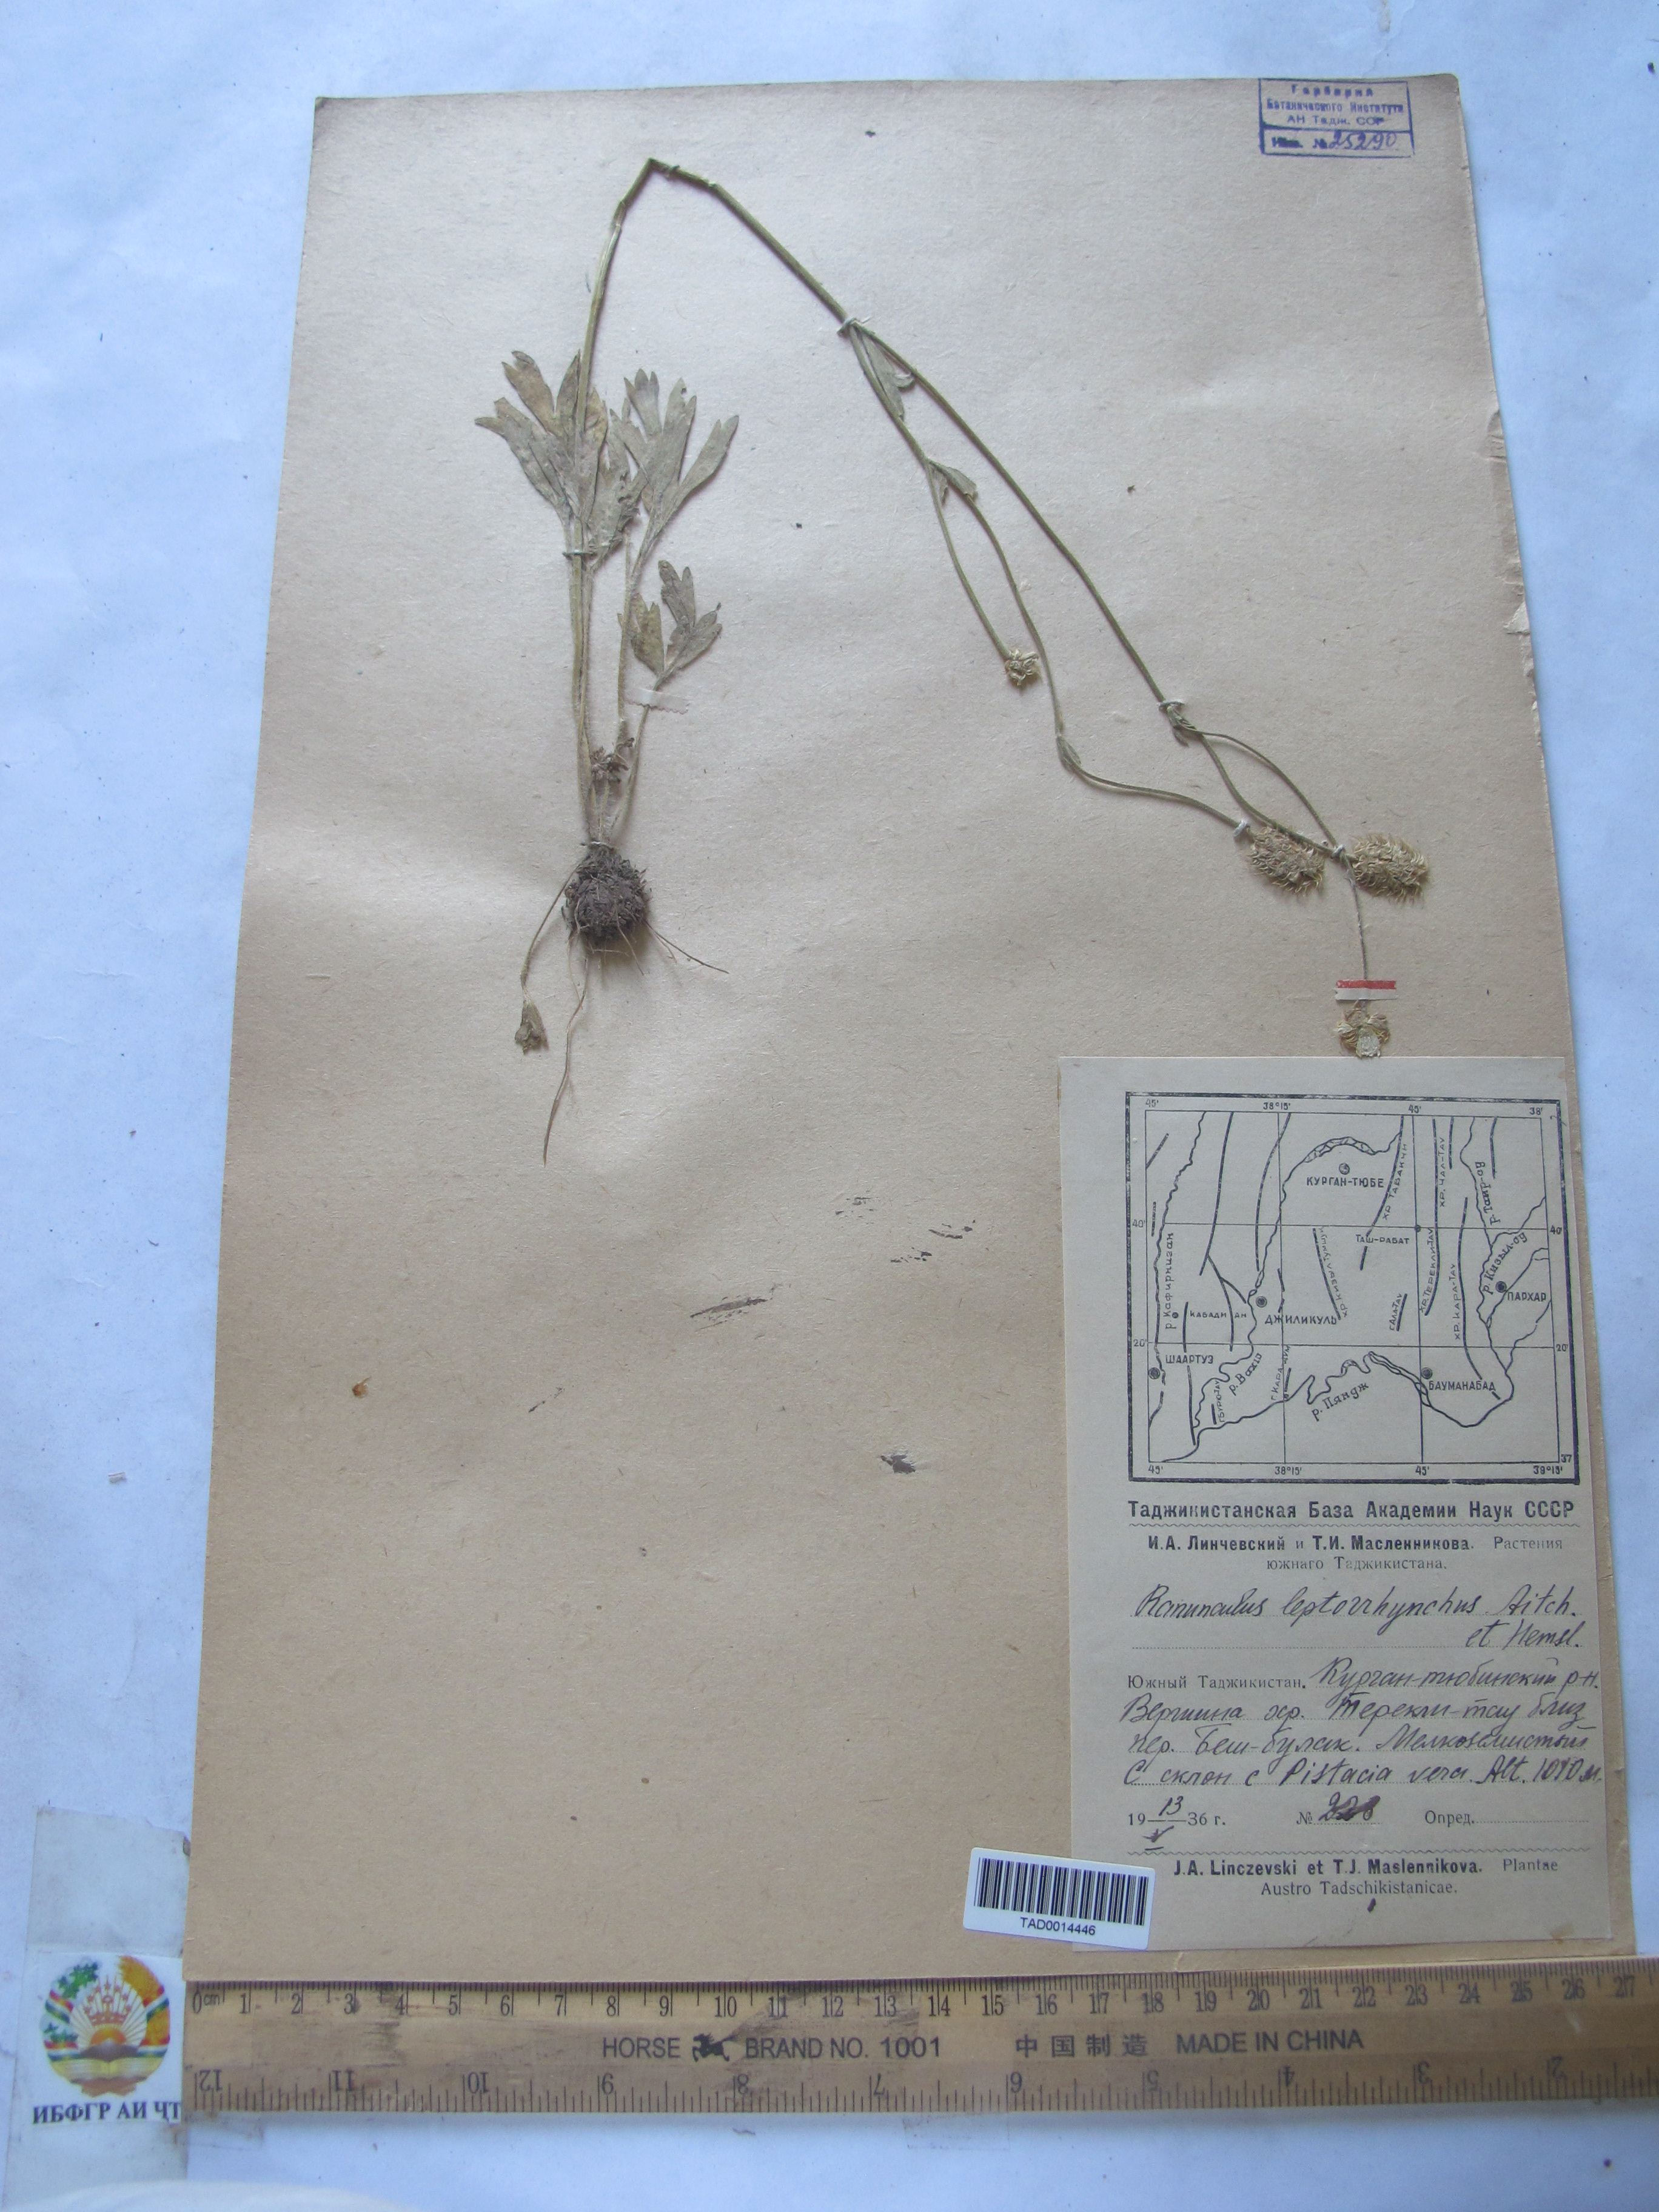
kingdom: Plantae
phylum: Tracheophyta
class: Magnoliopsida
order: Ranunculales
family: Ranunculaceae
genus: Ranunculus
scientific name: Ranunculus leptorrhynchus
